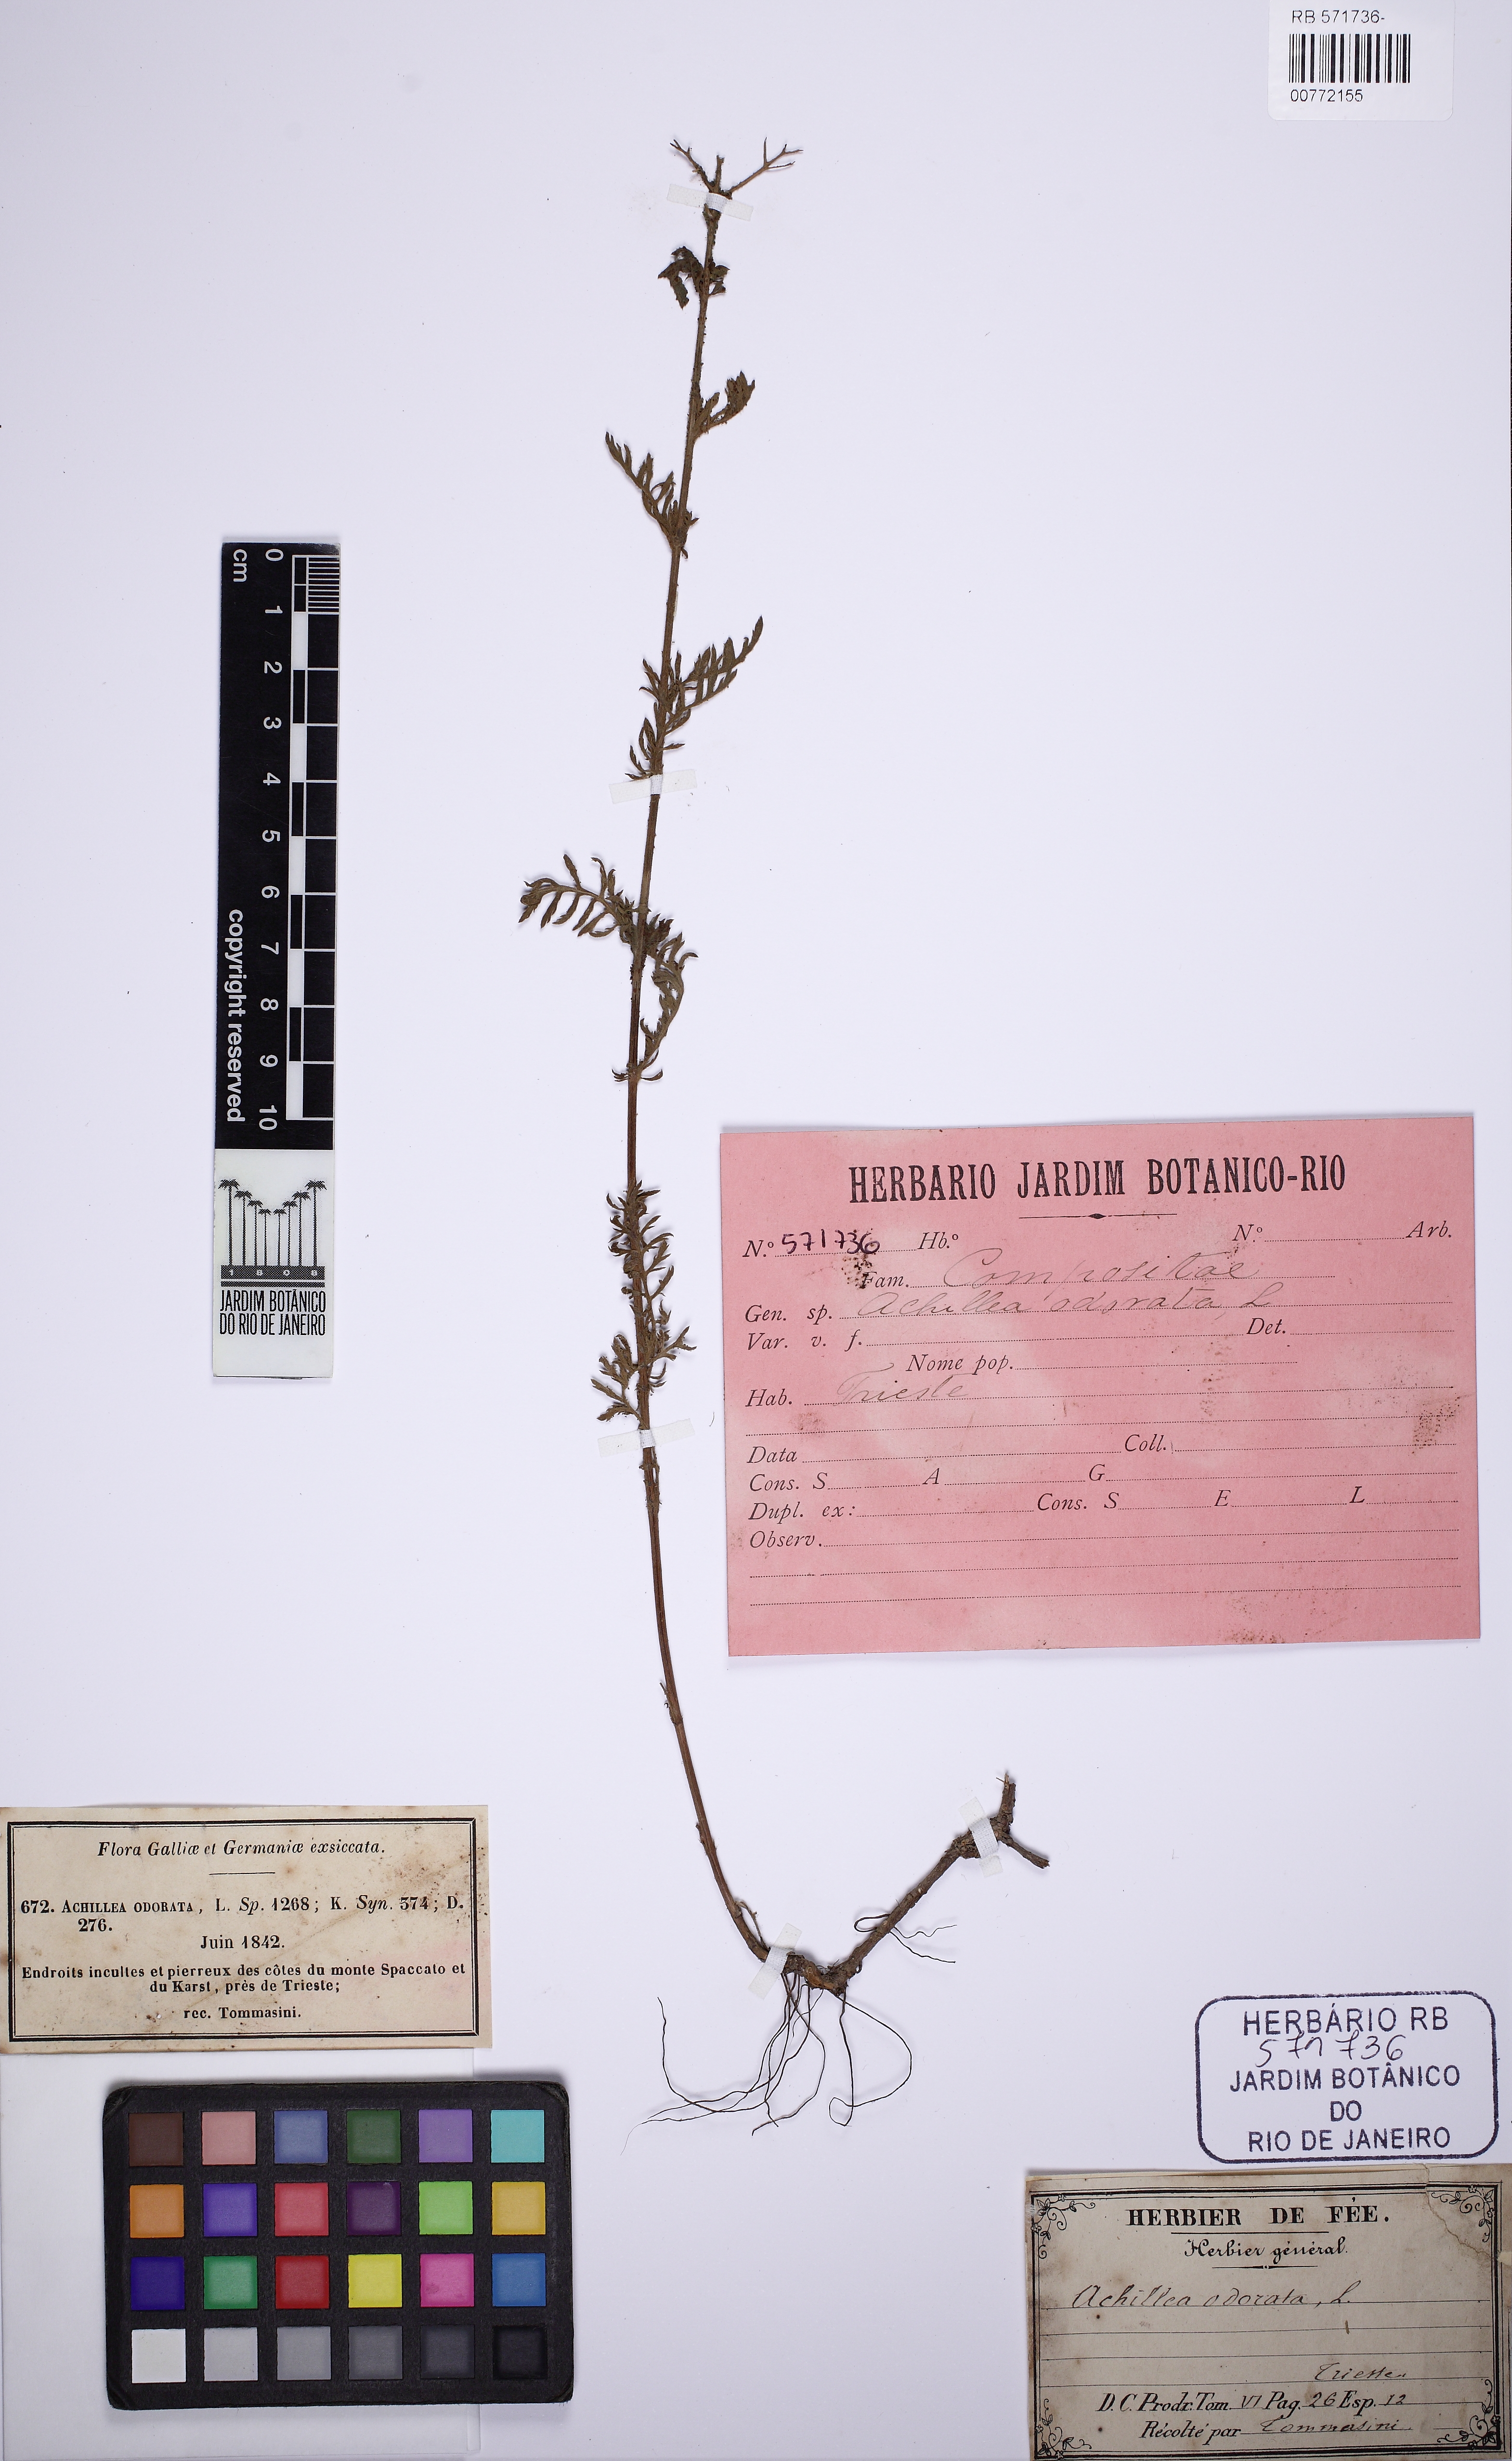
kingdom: Plantae
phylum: Tracheophyta
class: Magnoliopsida
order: Asterales
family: Asteraceae
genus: Achillea
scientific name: Achillea odorata
